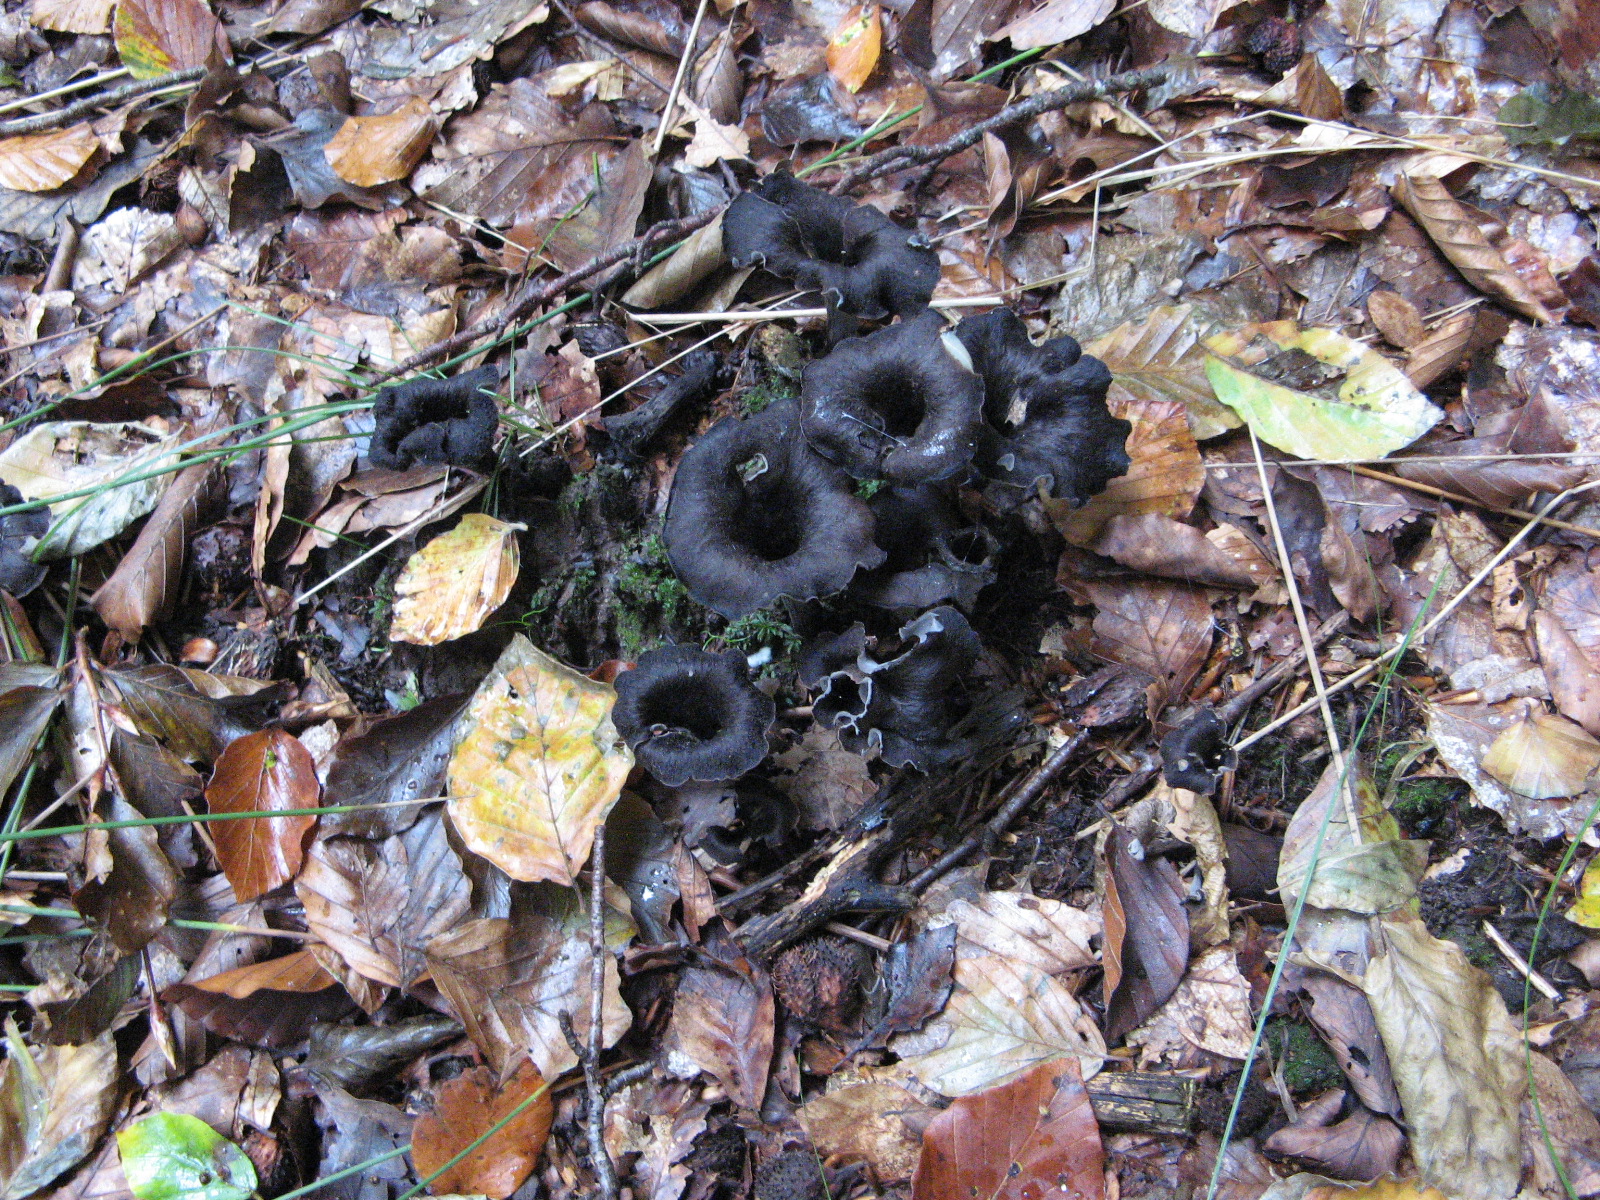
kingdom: Fungi
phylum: Basidiomycota
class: Agaricomycetes
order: Cantharellales
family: Hydnaceae
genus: Craterellus
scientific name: Craterellus cornucopioides
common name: trompetsvamp
